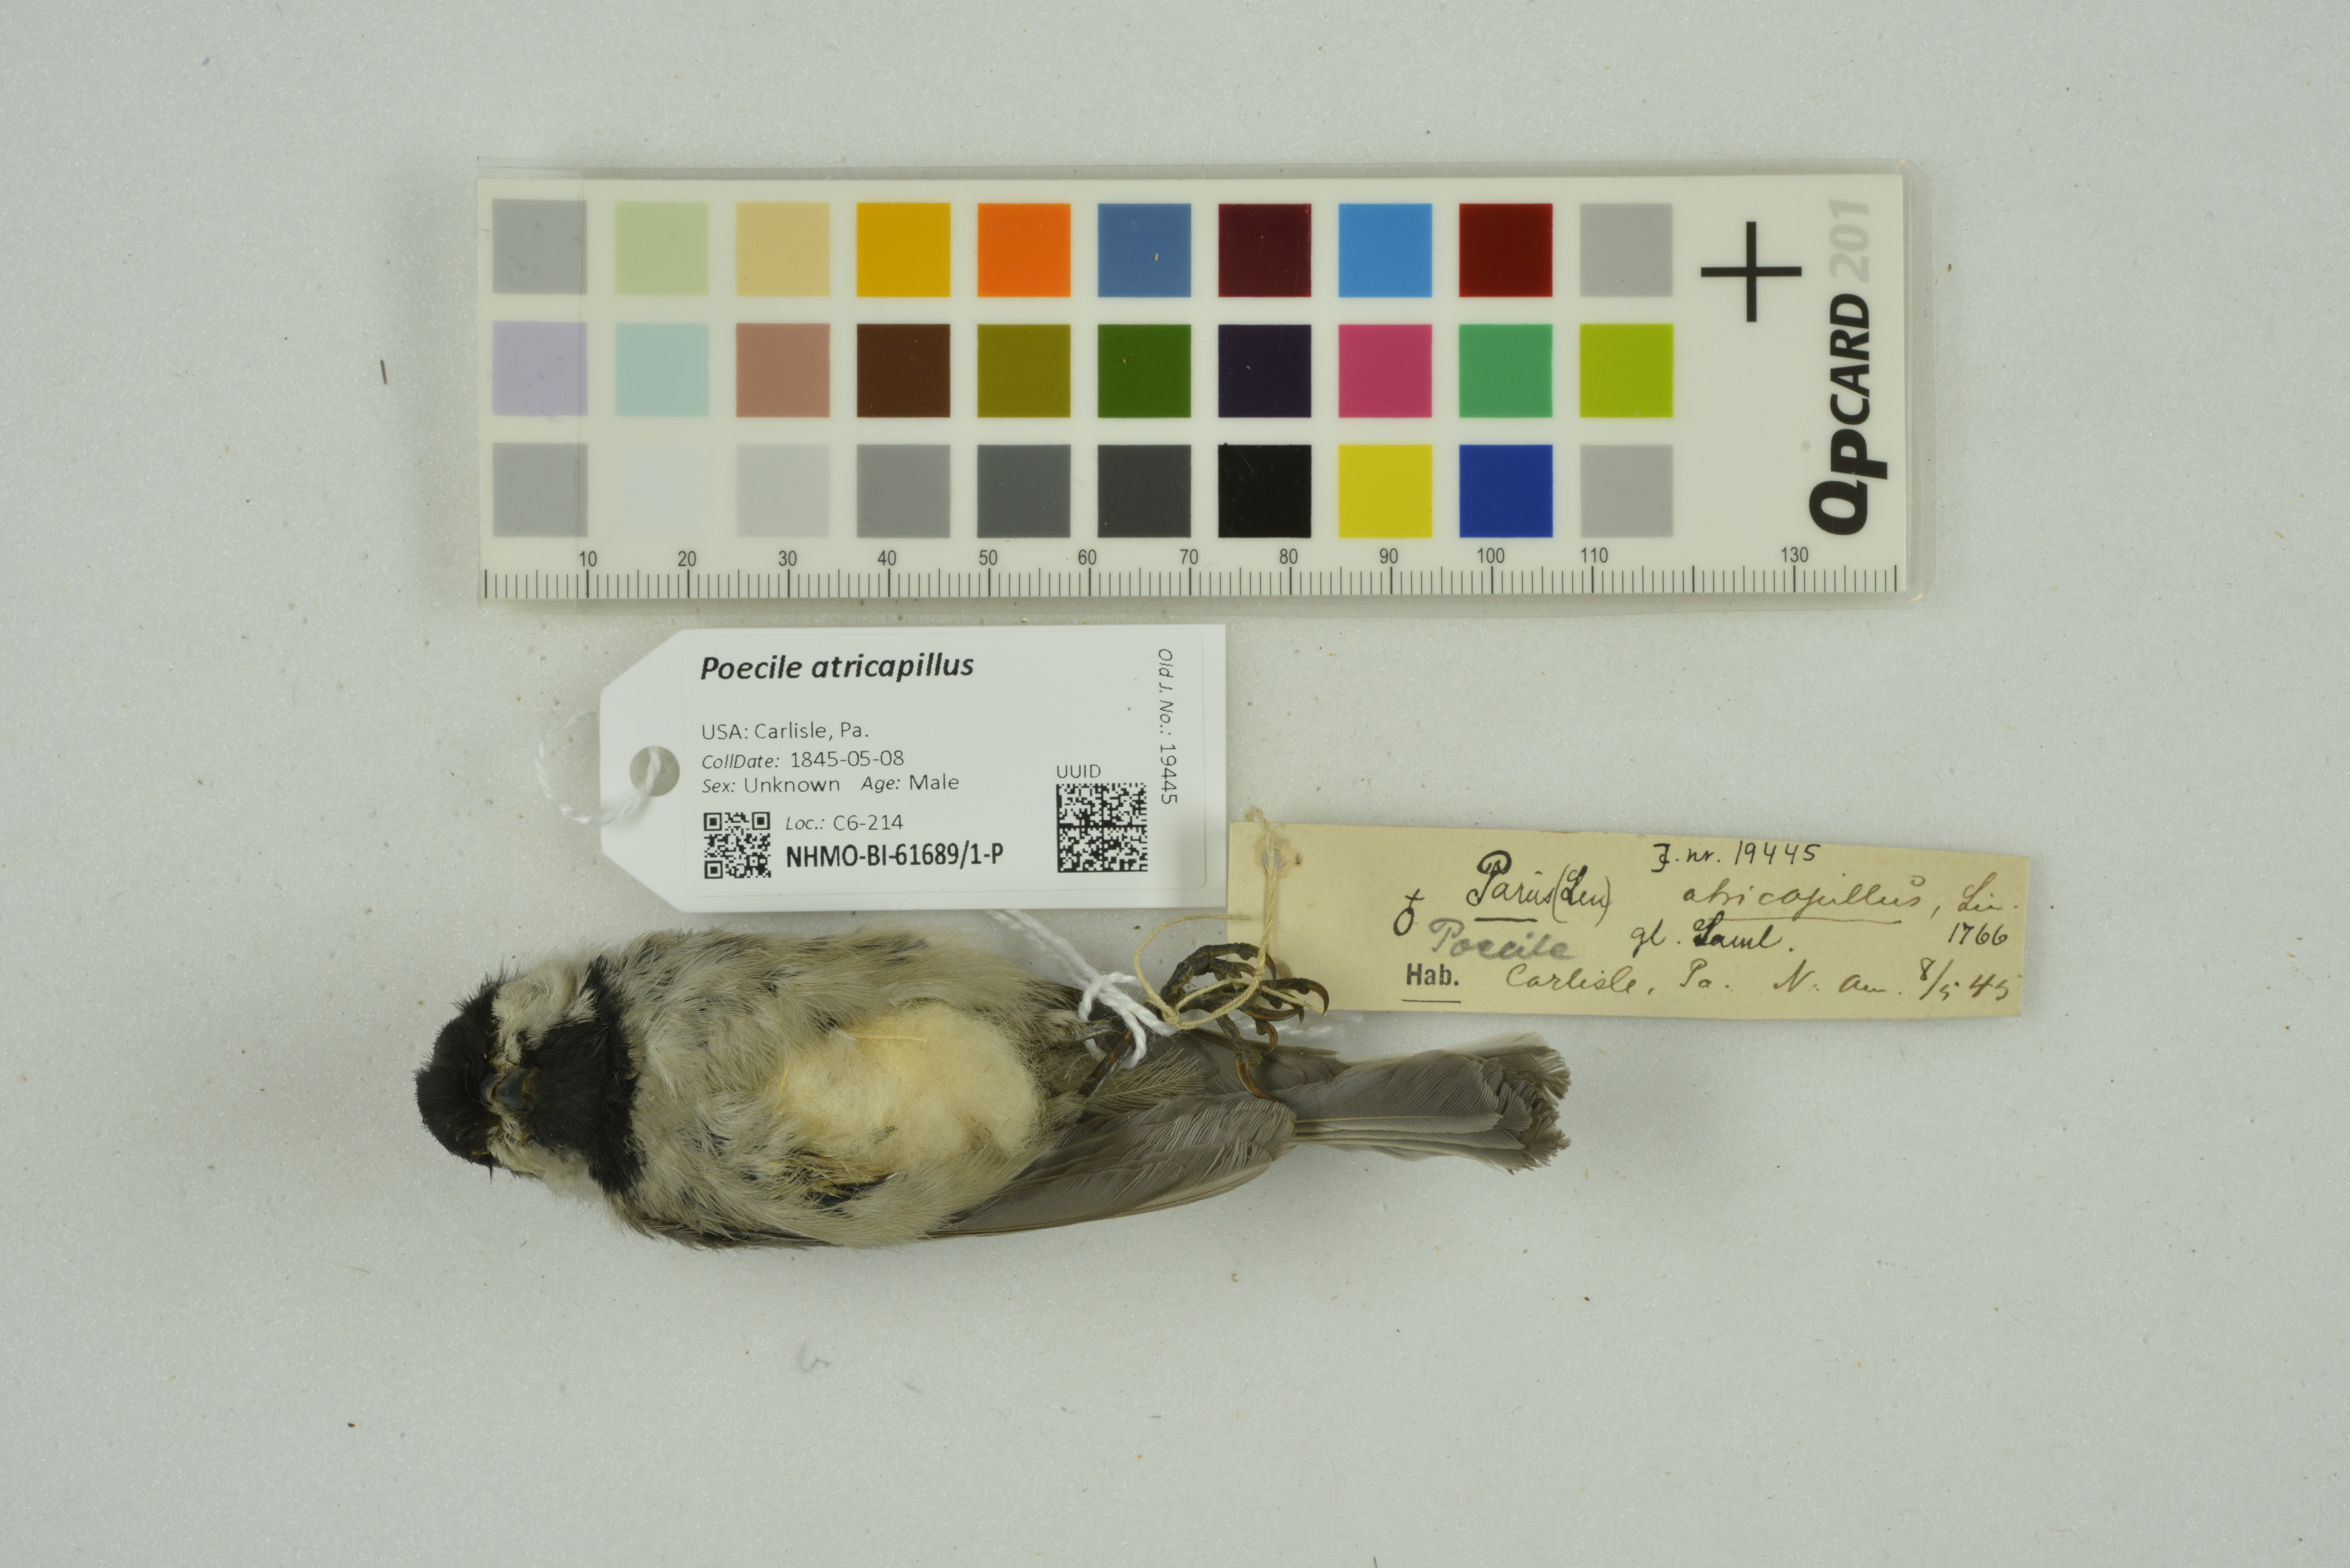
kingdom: Animalia
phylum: Chordata
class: Aves
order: Passeriformes
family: Paridae
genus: Poecile
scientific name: Poecile atricapillus
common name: Black-capped chickadee
